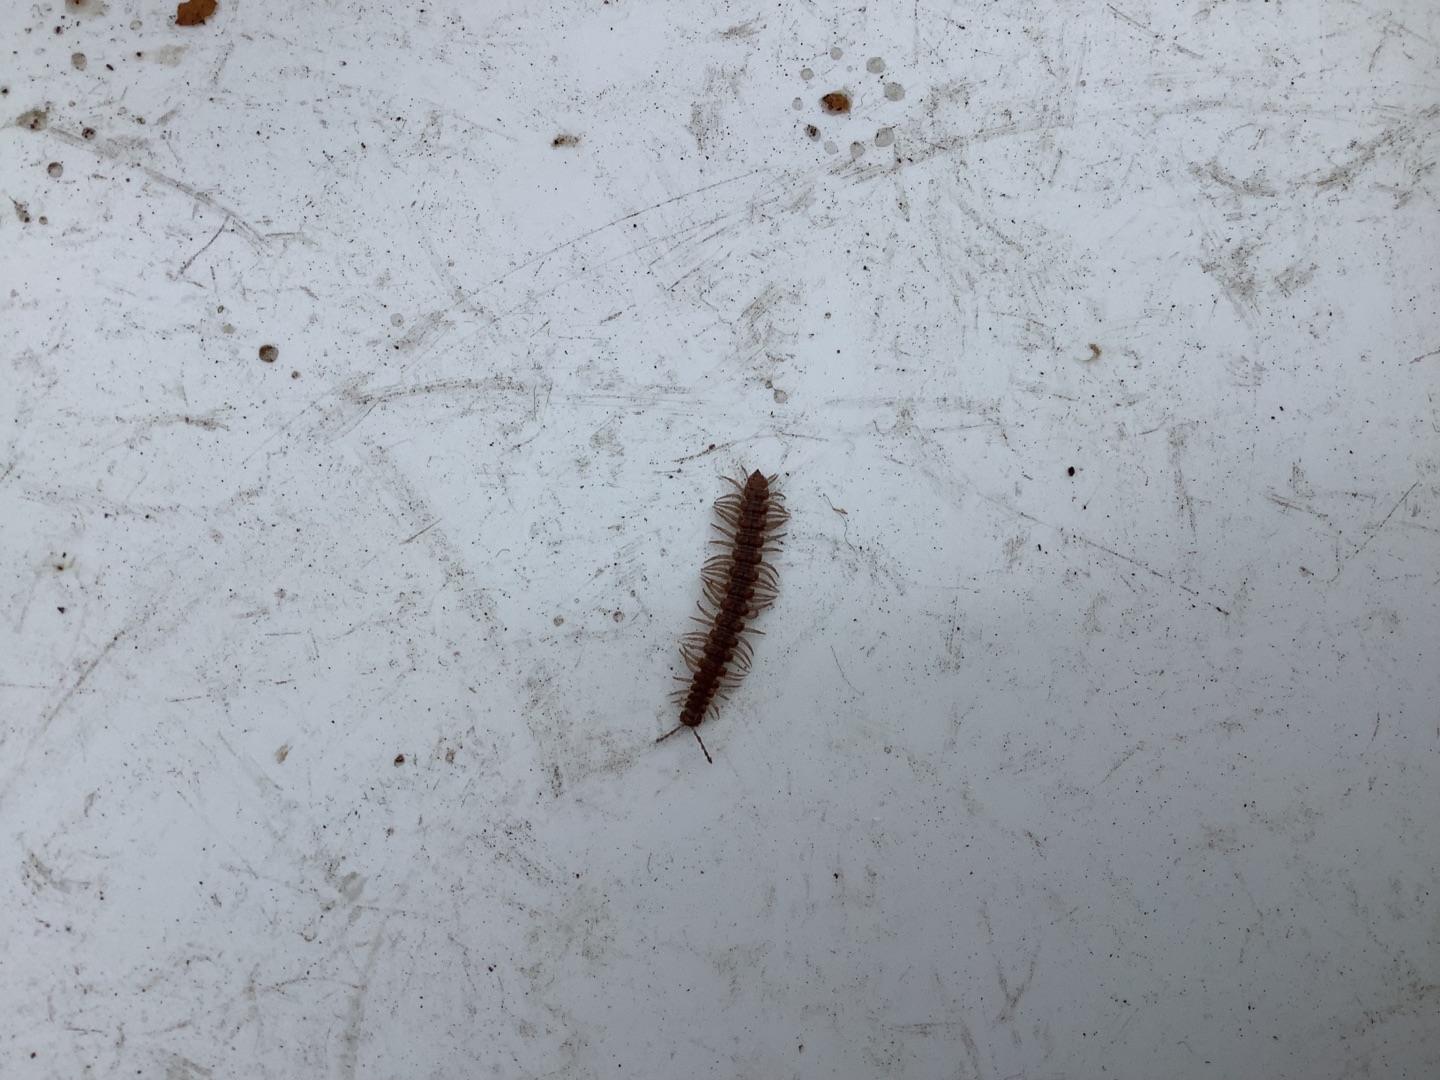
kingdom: Animalia
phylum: Arthropoda
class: Diplopoda
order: Polydesmida
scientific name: Polydesmida
